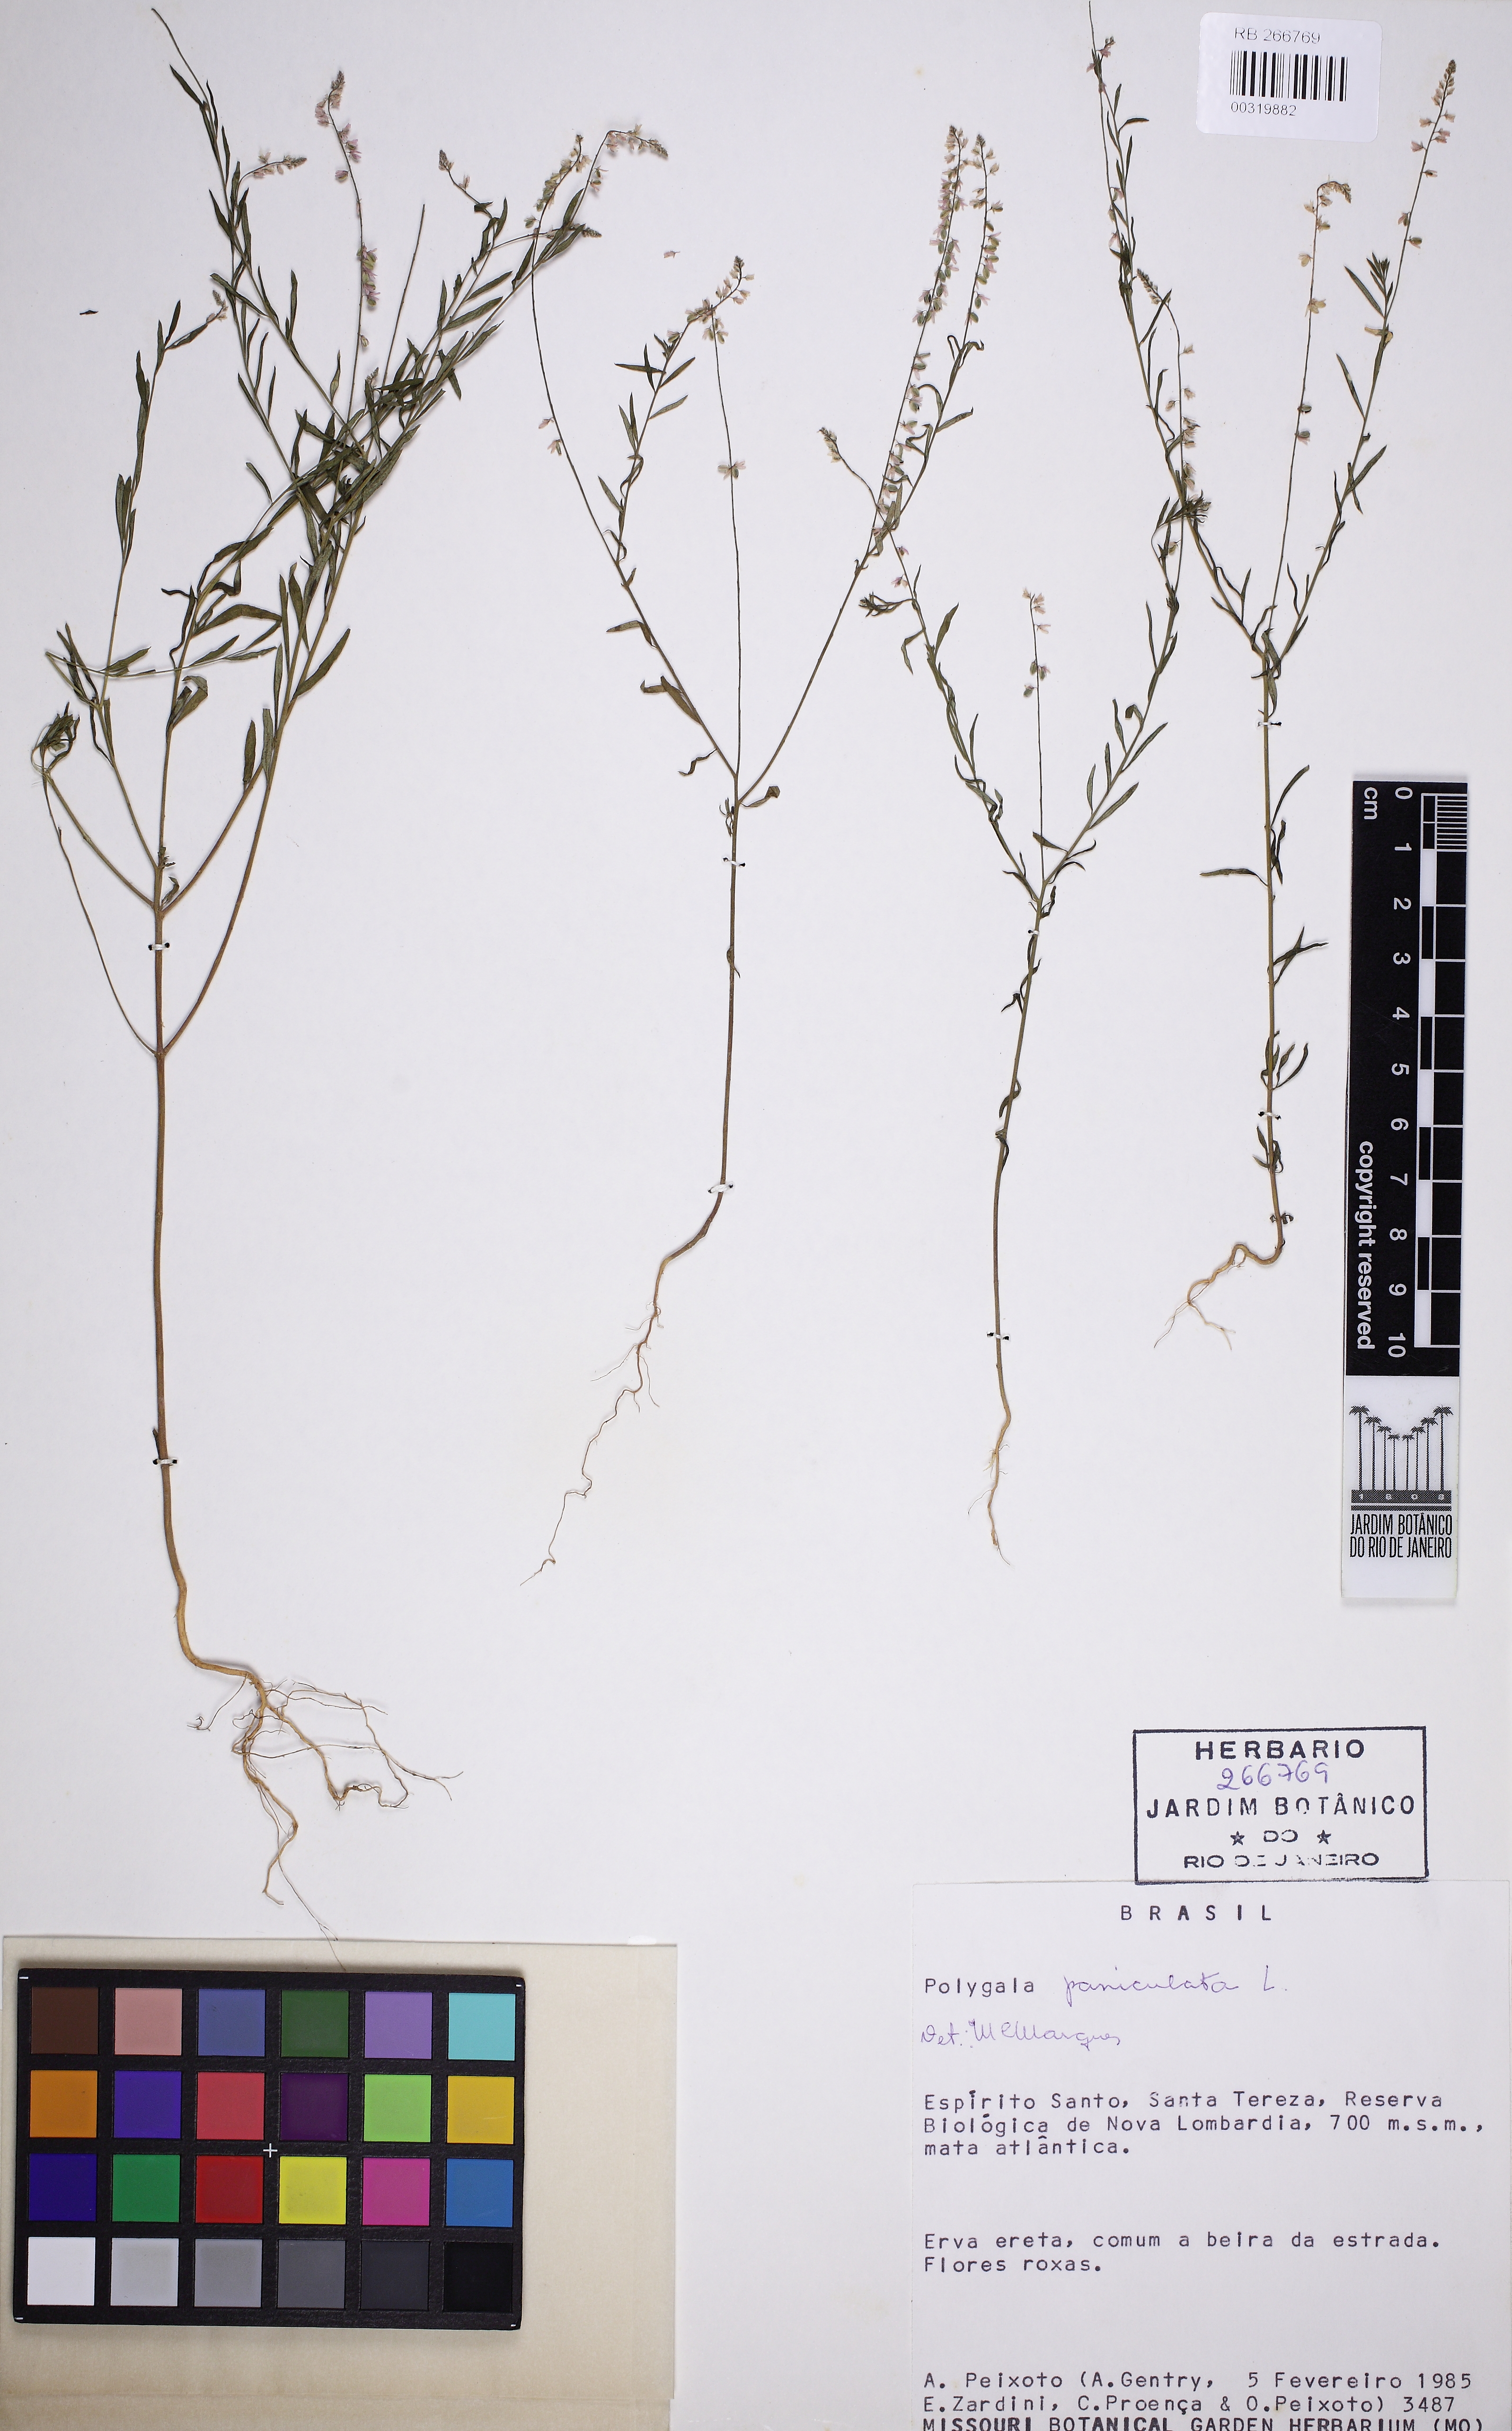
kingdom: Plantae
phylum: Tracheophyta
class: Magnoliopsida
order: Fabales
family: Polygalaceae
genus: Polygala
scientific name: Polygala paniculata
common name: Orosne
